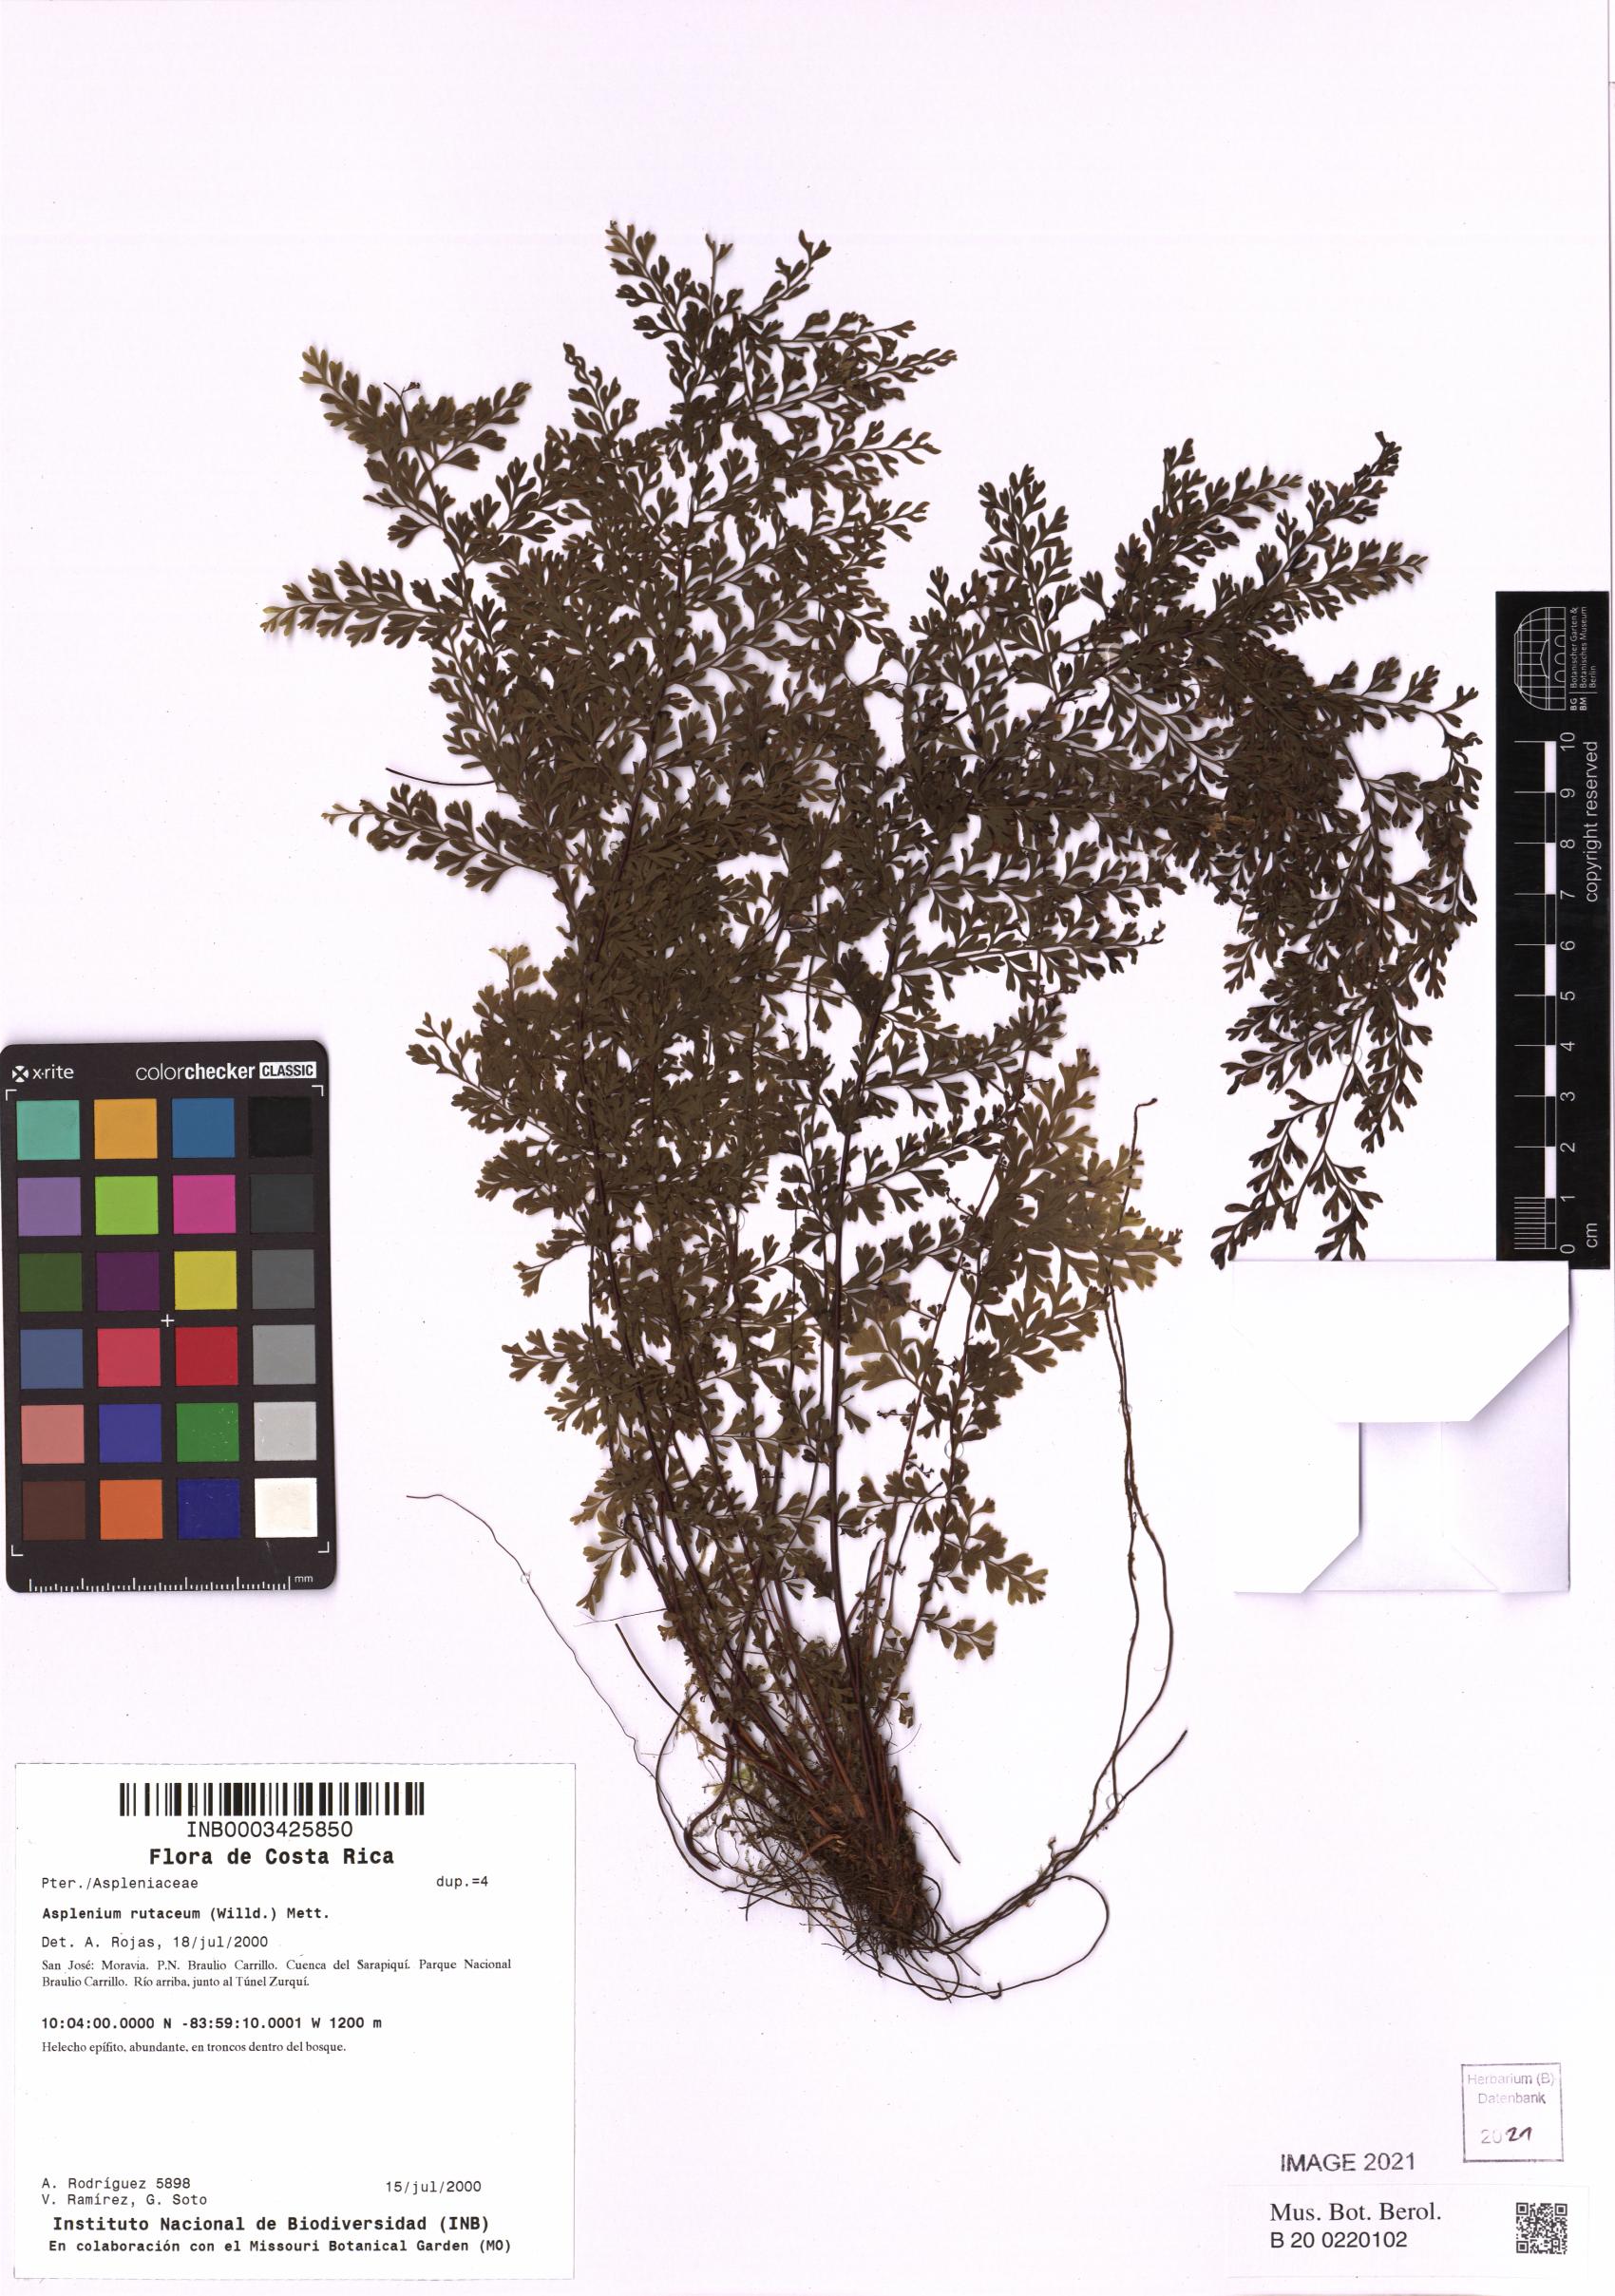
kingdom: Plantae
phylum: Tracheophyta
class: Polypodiopsida
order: Polypodiales
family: Aspleniaceae
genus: Asplenium
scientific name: Asplenium rutaceum
